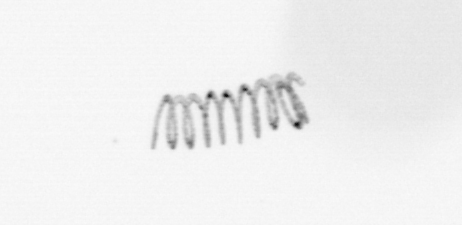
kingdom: Chromista
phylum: Ochrophyta
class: Bacillariophyceae
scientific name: Bacillariophyceae
